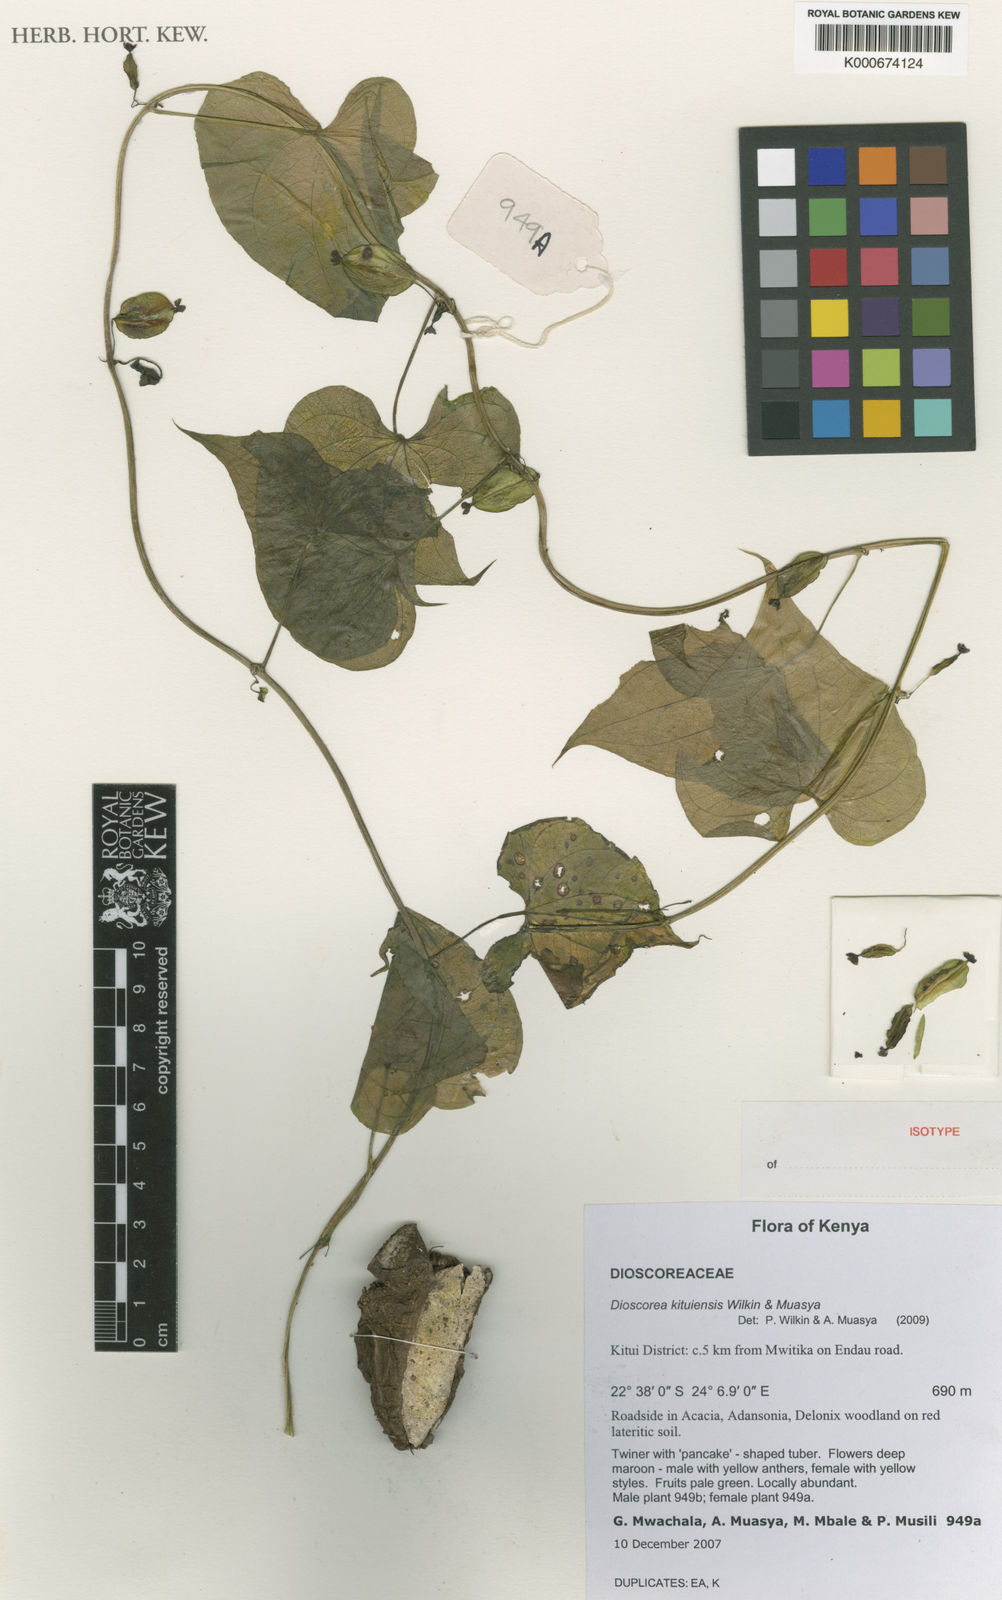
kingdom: Plantae
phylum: Tracheophyta
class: Liliopsida
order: Dioscoreales
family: Dioscoreaceae
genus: Dioscorea
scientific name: Dioscorea kituiensis
